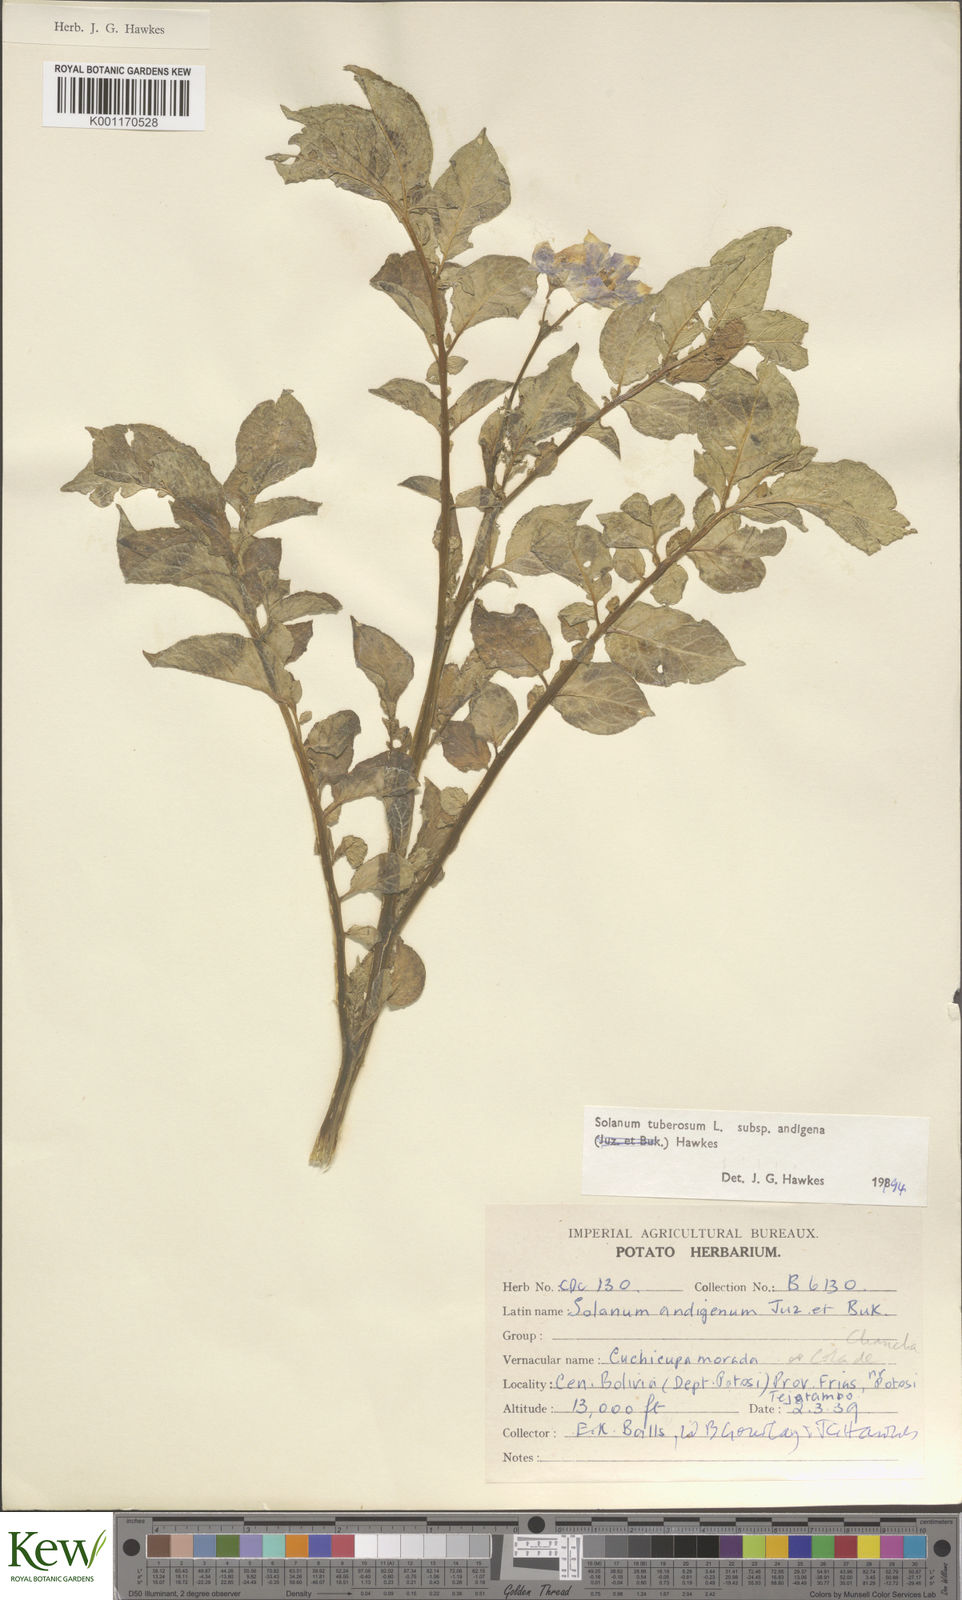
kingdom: Plantae
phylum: Tracheophyta
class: Magnoliopsida
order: Solanales
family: Solanaceae
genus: Solanum
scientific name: Solanum tuberosum
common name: Potato
